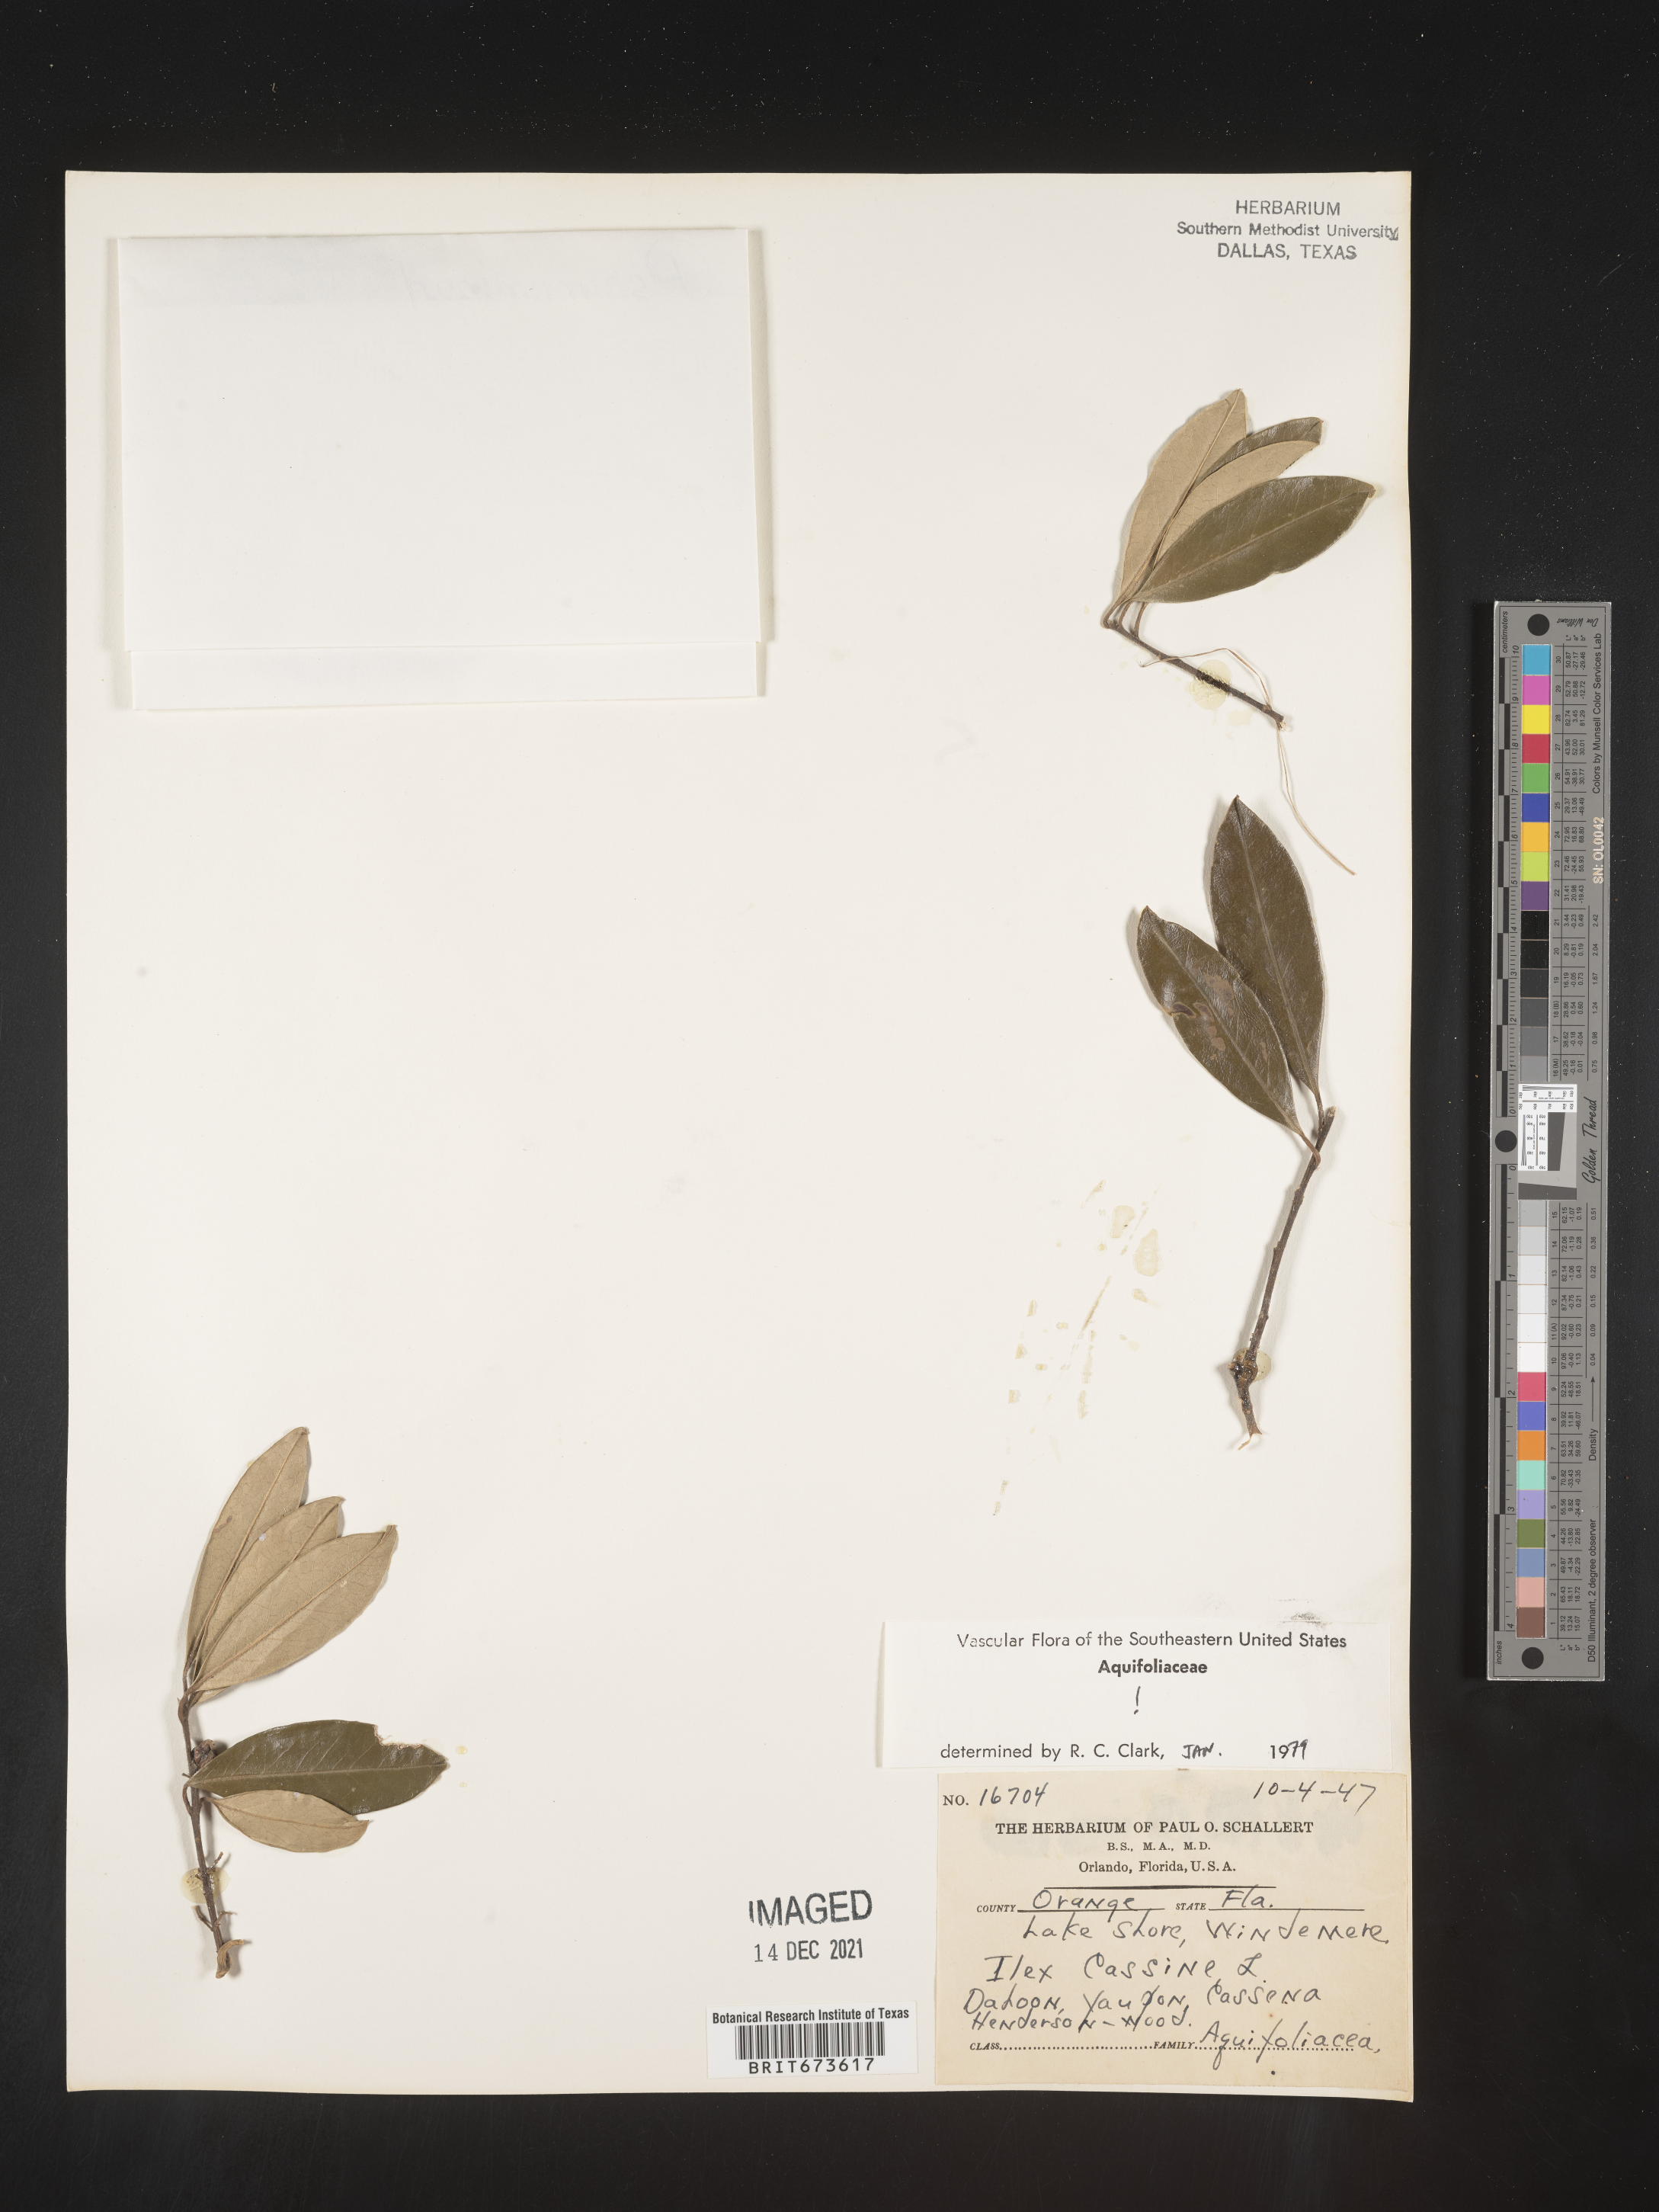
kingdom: Plantae
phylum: Tracheophyta
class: Magnoliopsida
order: Aquifoliales
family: Aquifoliaceae
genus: Ilex
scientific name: Ilex cassine
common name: Dahoon
